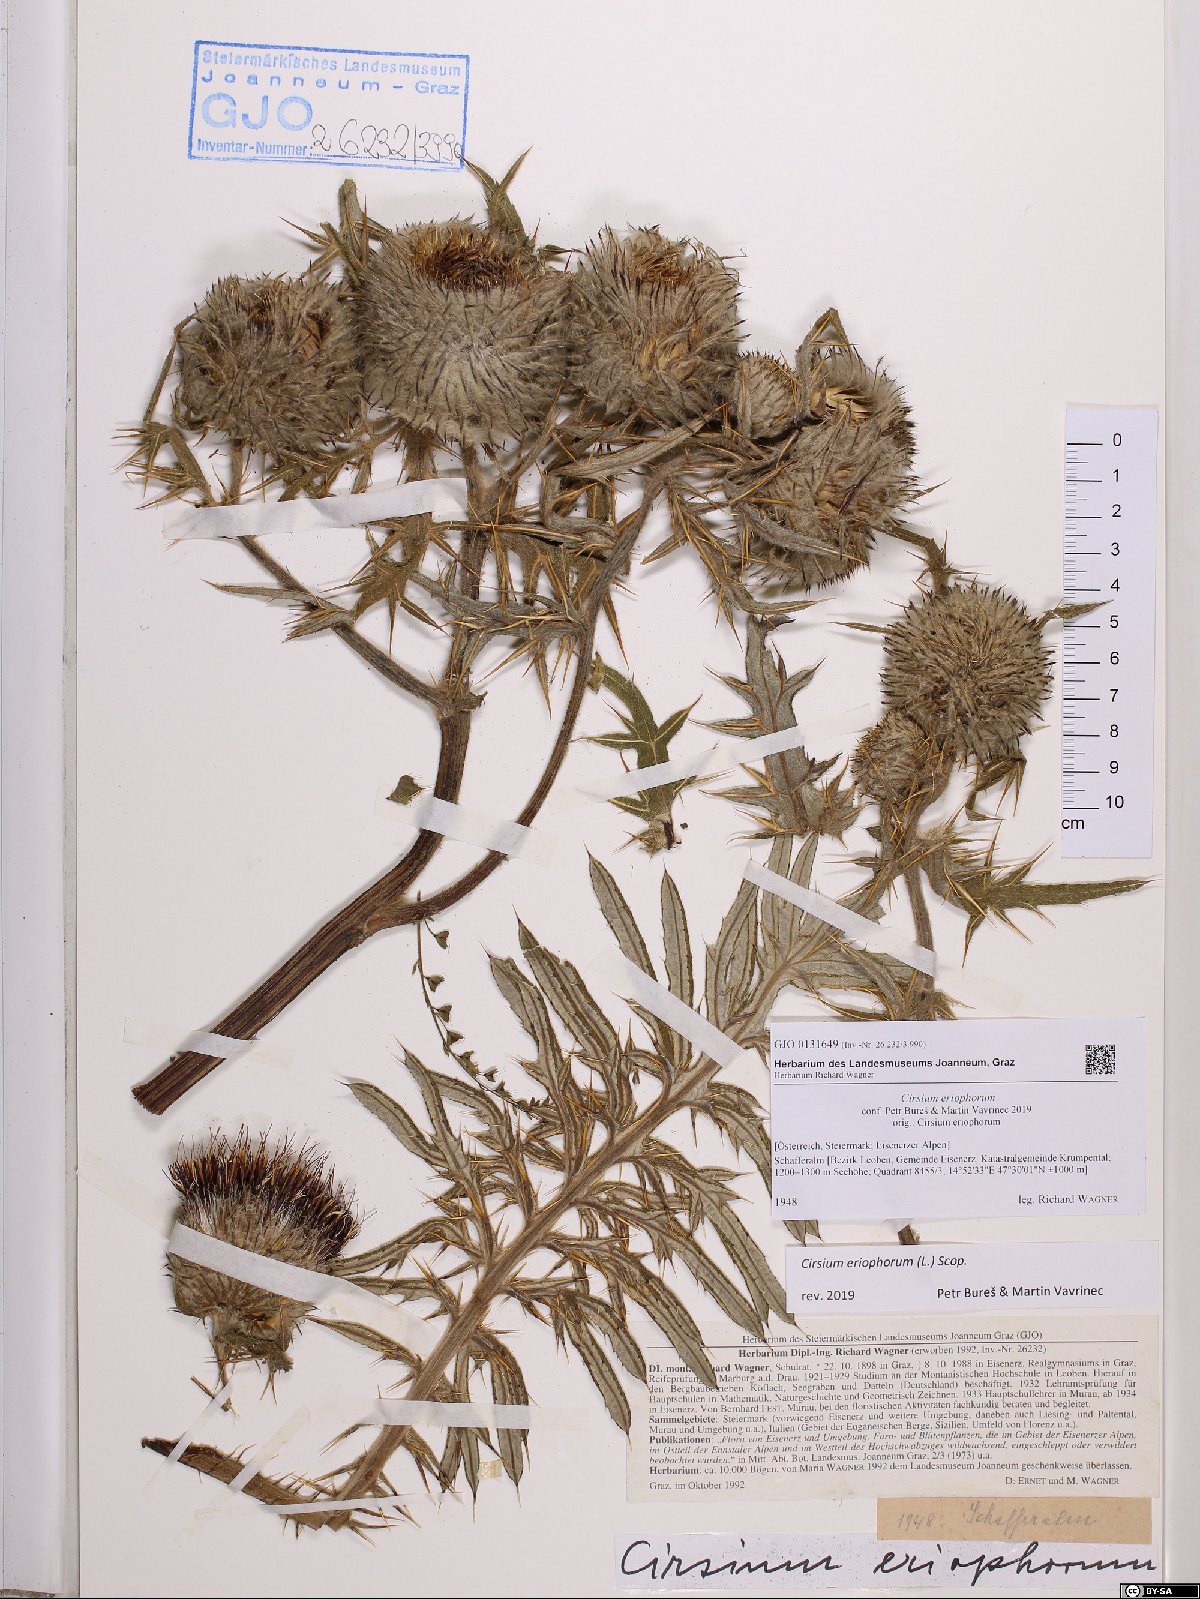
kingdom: Plantae
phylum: Tracheophyta
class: Magnoliopsida
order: Asterales
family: Asteraceae
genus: Lophiolepis
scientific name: Lophiolepis eriophora
